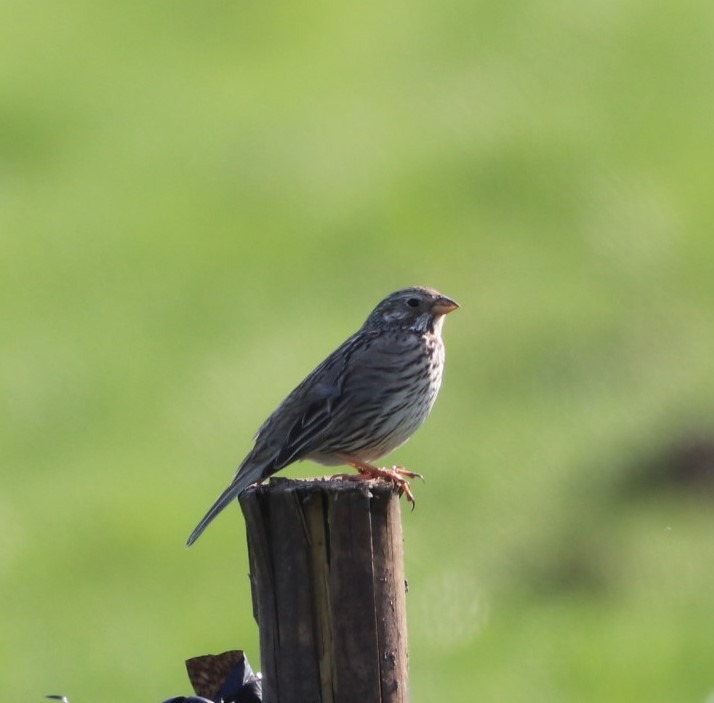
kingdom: Animalia
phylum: Chordata
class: Aves
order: Passeriformes
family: Emberizidae
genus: Emberiza
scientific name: Emberiza calandra
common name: Bomlærke
